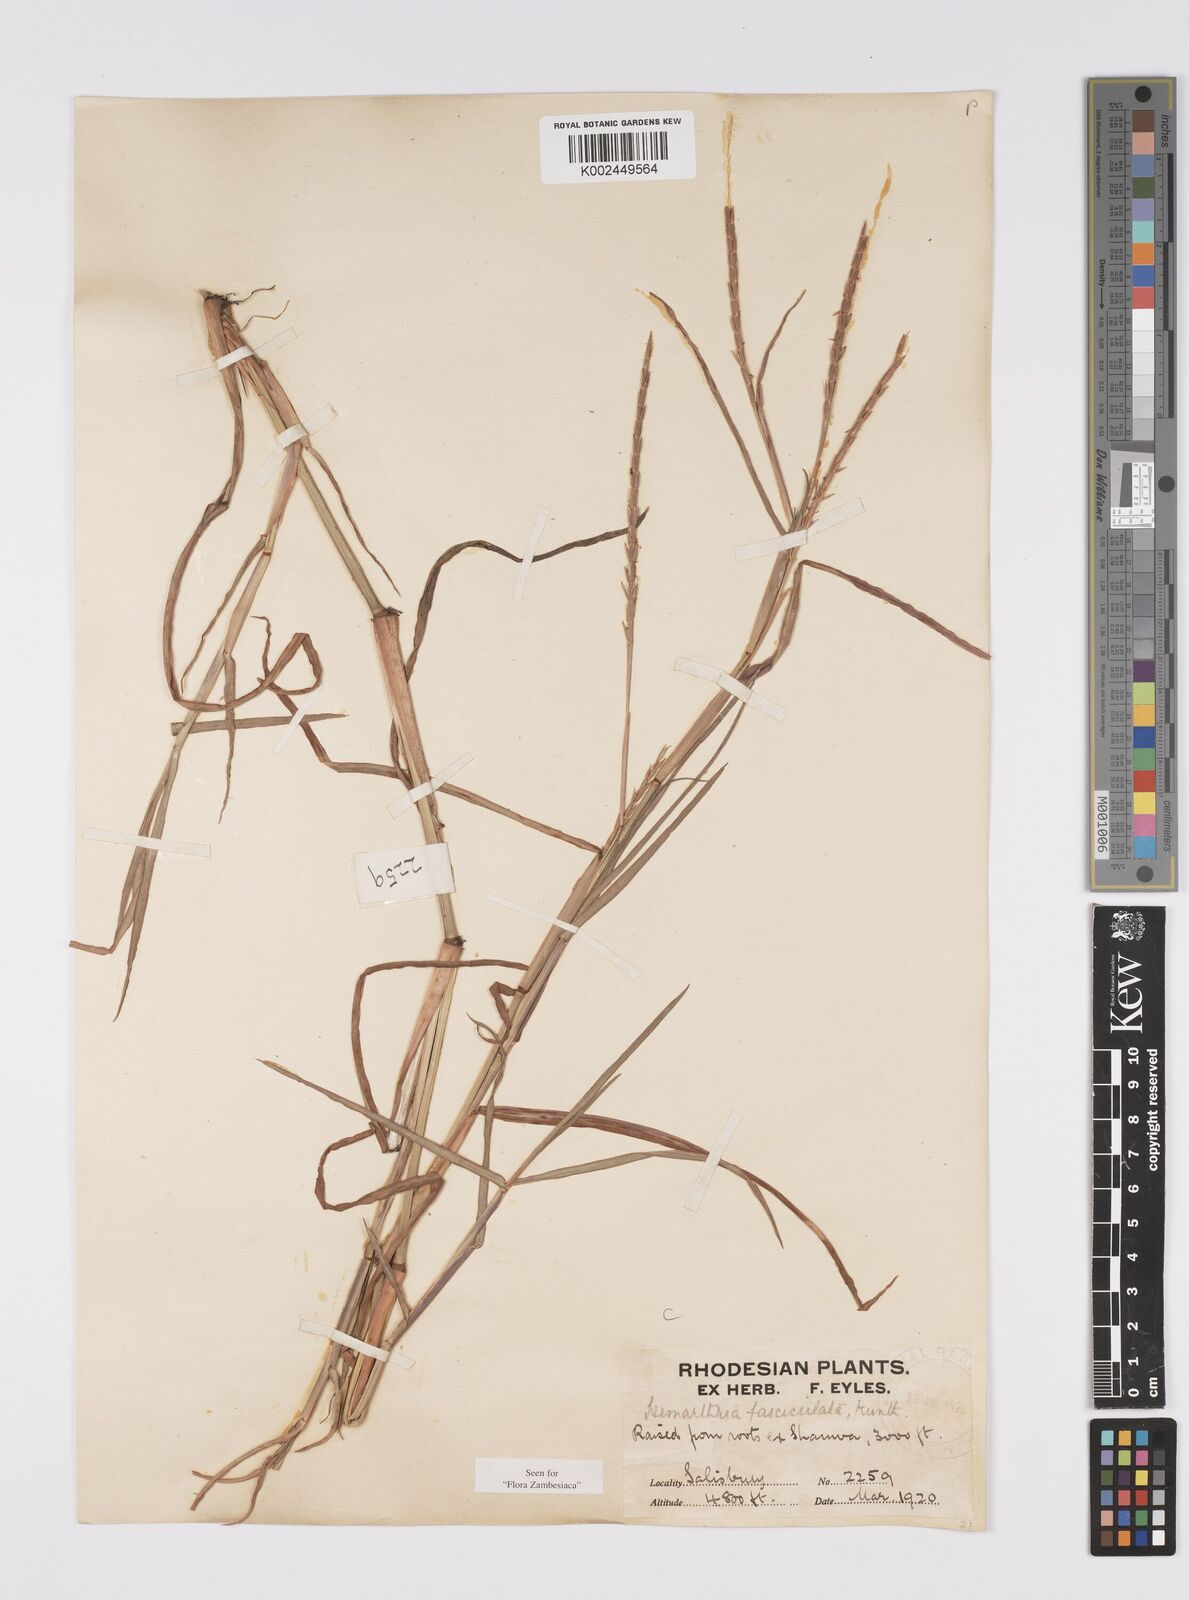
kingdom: Plantae
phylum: Tracheophyta
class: Liliopsida
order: Poales
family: Poaceae
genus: Hemarthria
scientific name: Hemarthria altissima
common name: African jointgrass
